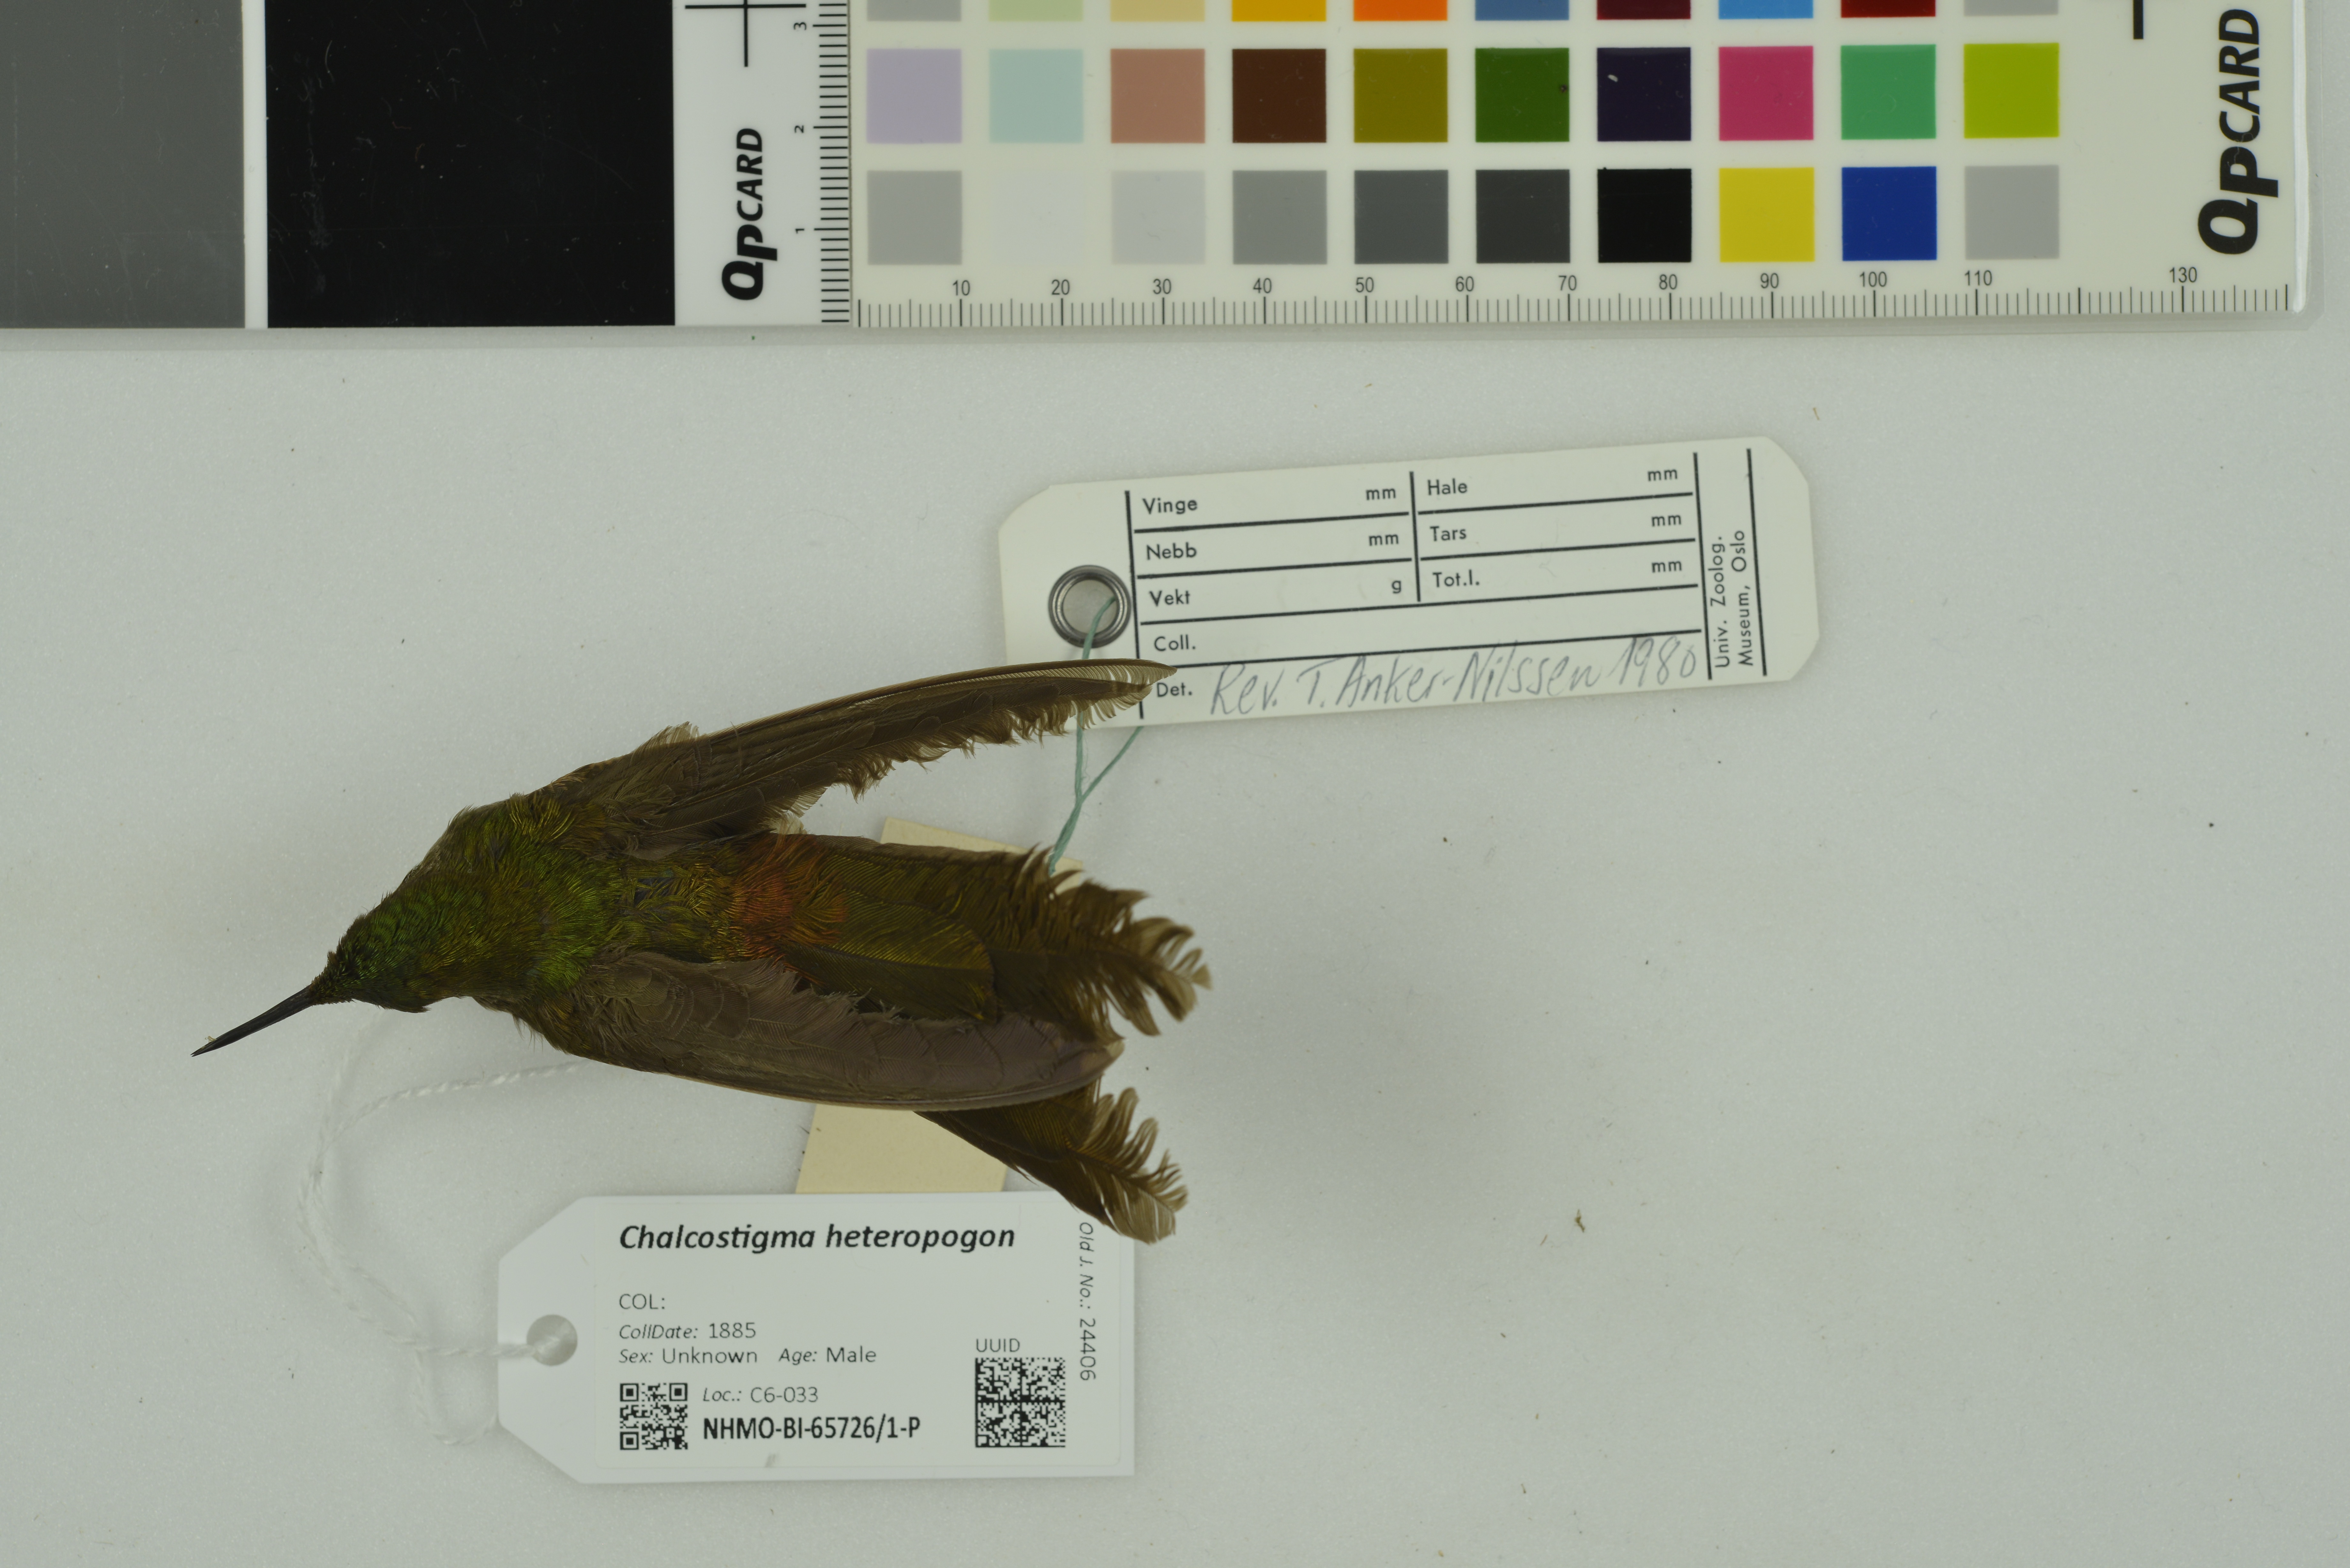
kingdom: Animalia
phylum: Chordata
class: Aves
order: Apodiformes
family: Trochilidae
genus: Chalcostigma
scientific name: Chalcostigma heteropogon
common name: Bronze-tailed thornbill
